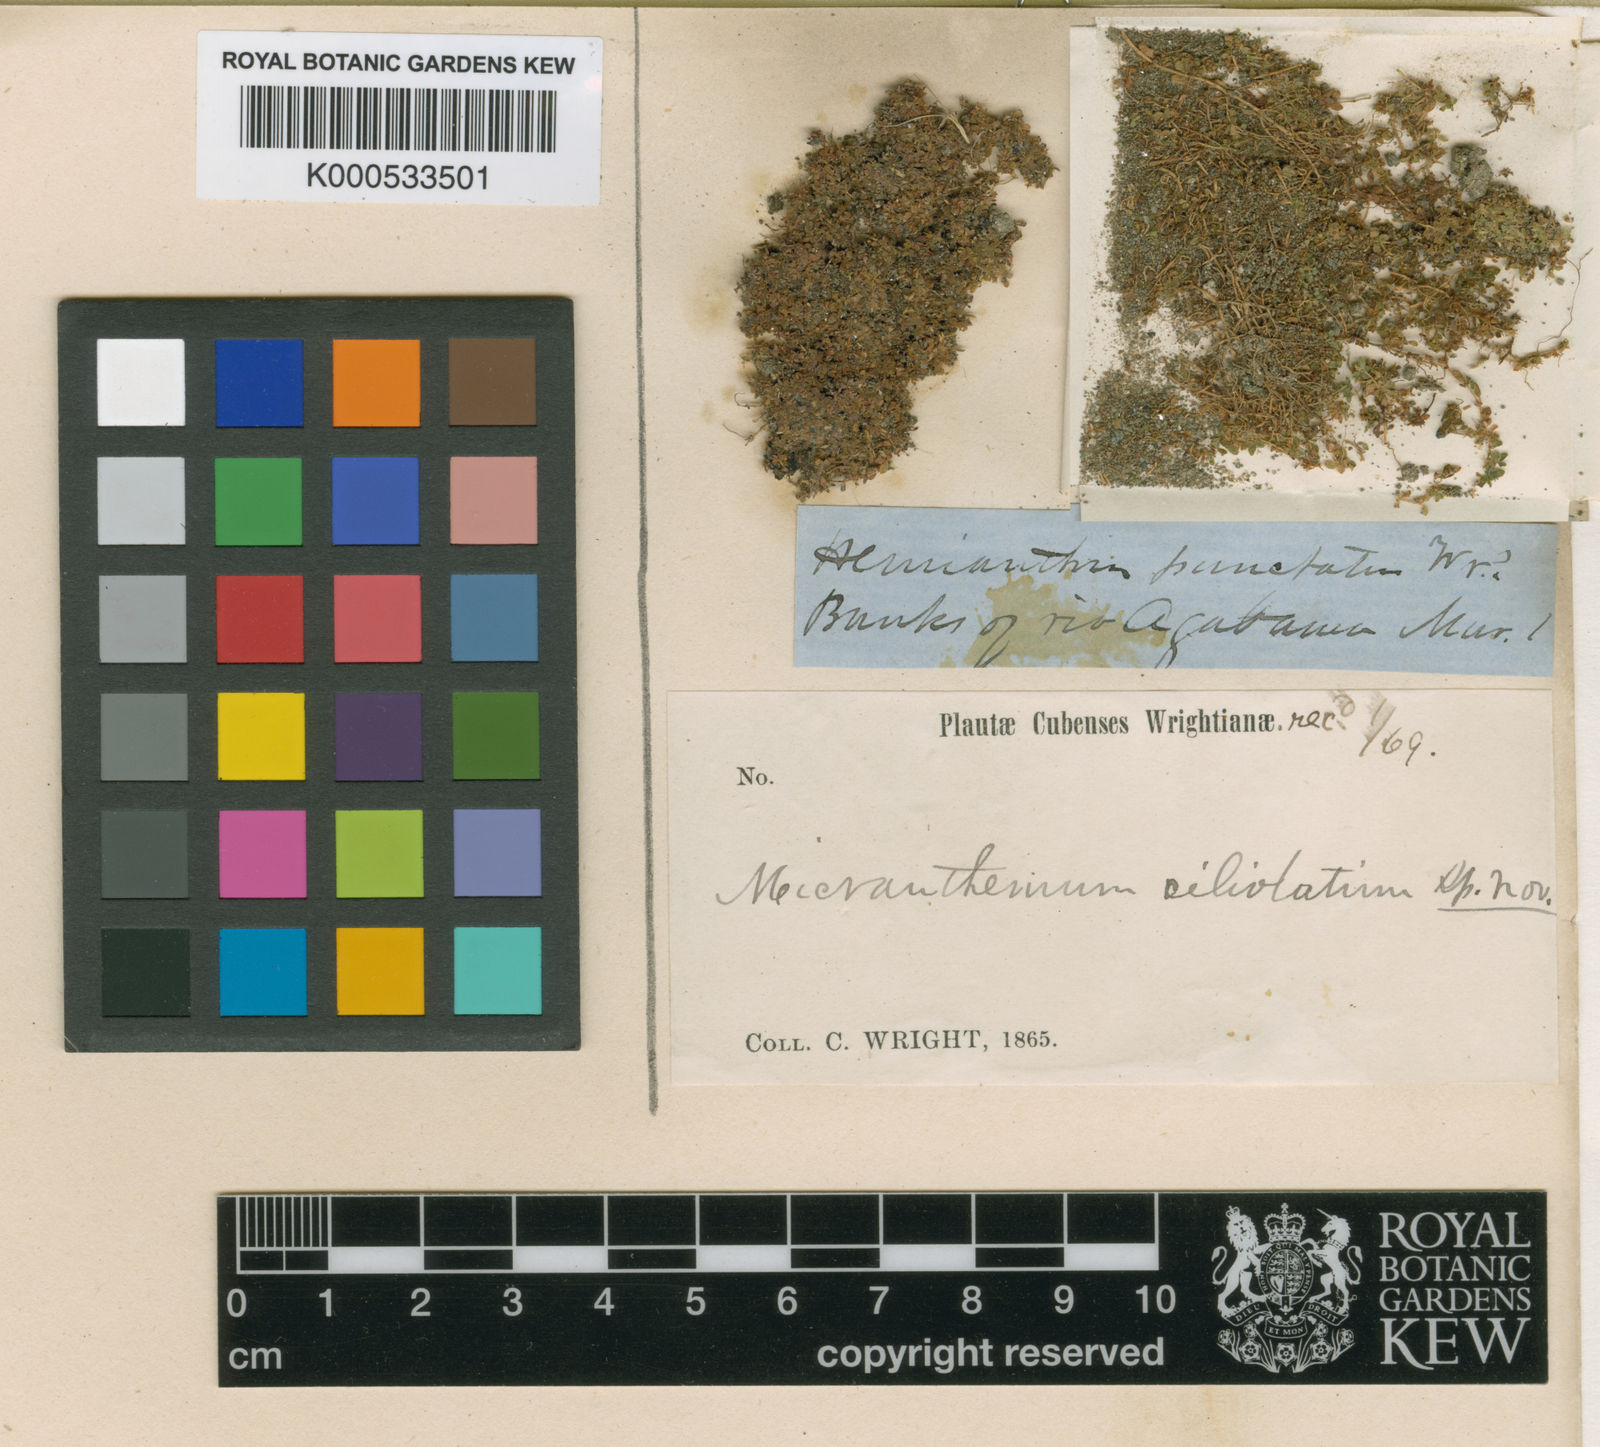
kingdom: Plantae
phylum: Tracheophyta
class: Magnoliopsida
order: Lamiales
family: Linderniaceae
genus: Micranthemum
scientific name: Micranthemum callitrichoides
